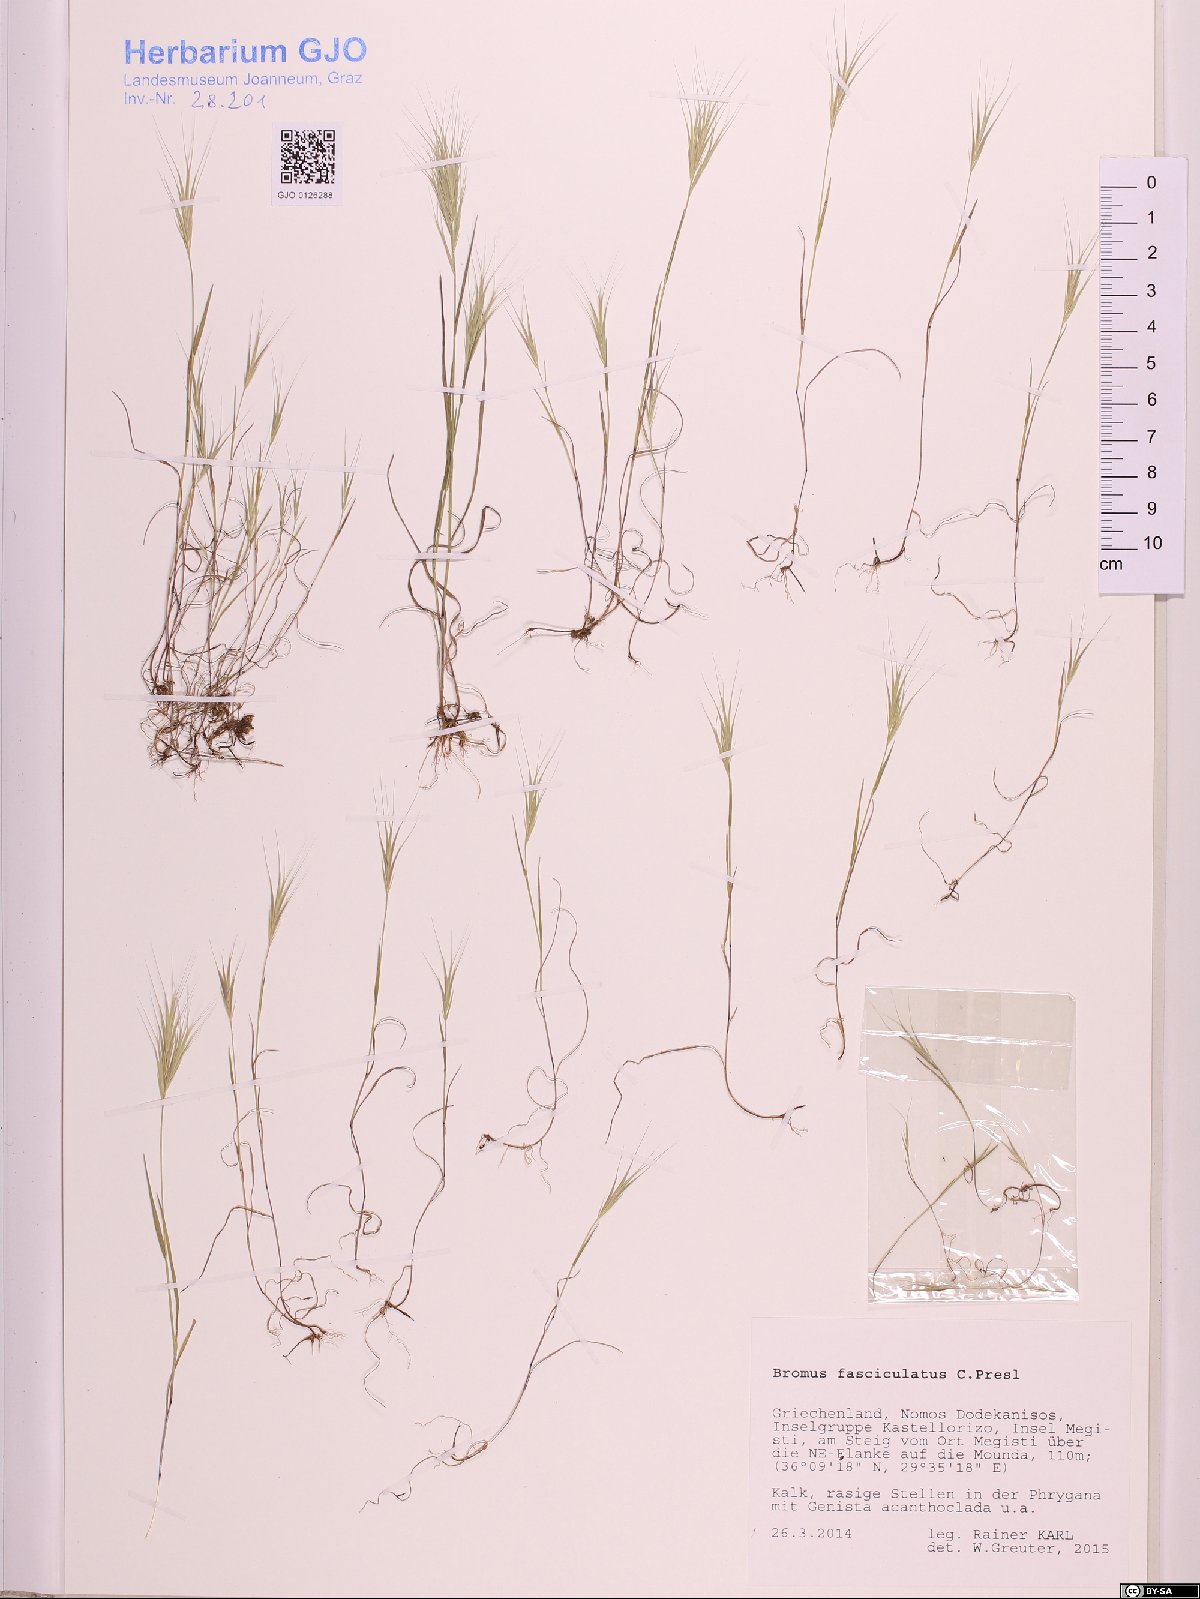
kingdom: Plantae
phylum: Tracheophyta
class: Liliopsida
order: Poales
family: Poaceae
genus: Bromus
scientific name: Bromus fasciculatus
